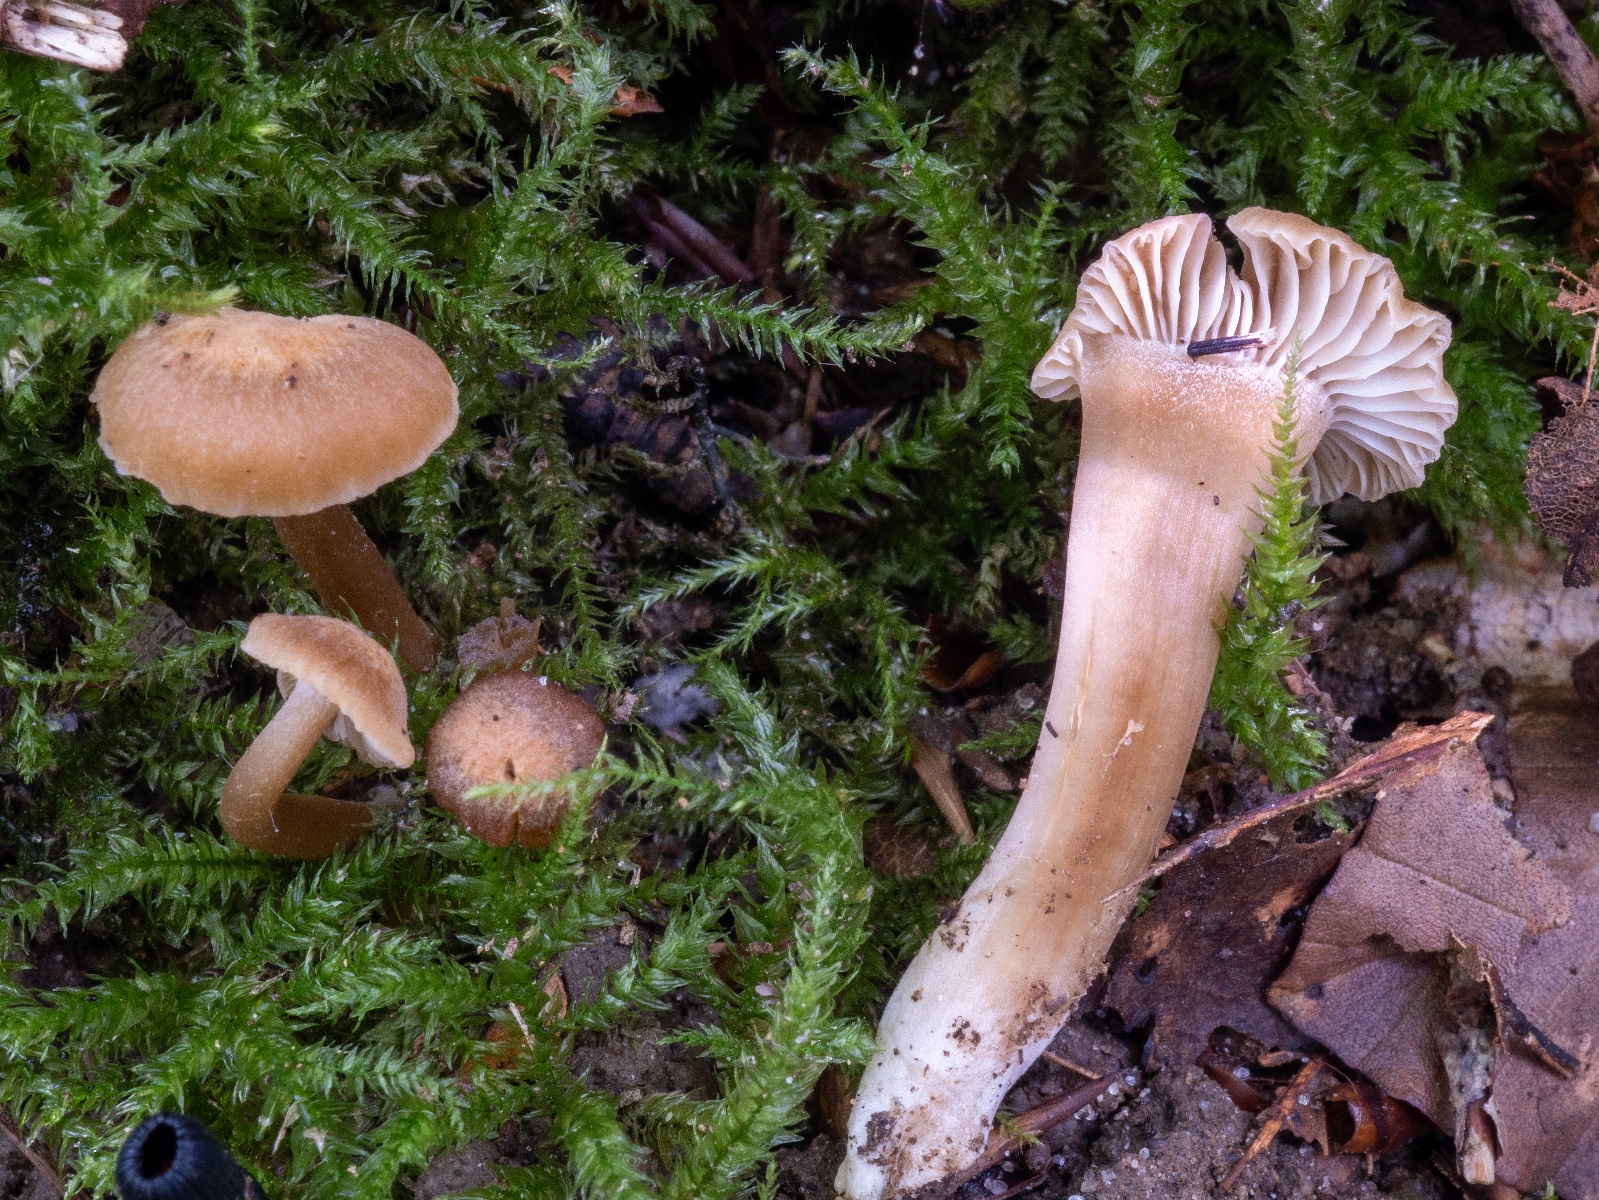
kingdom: Fungi
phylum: Basidiomycota
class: Agaricomycetes
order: Agaricales
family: Clavariaceae
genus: Camarophyllopsis
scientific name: Camarophyllopsis schulzeri
